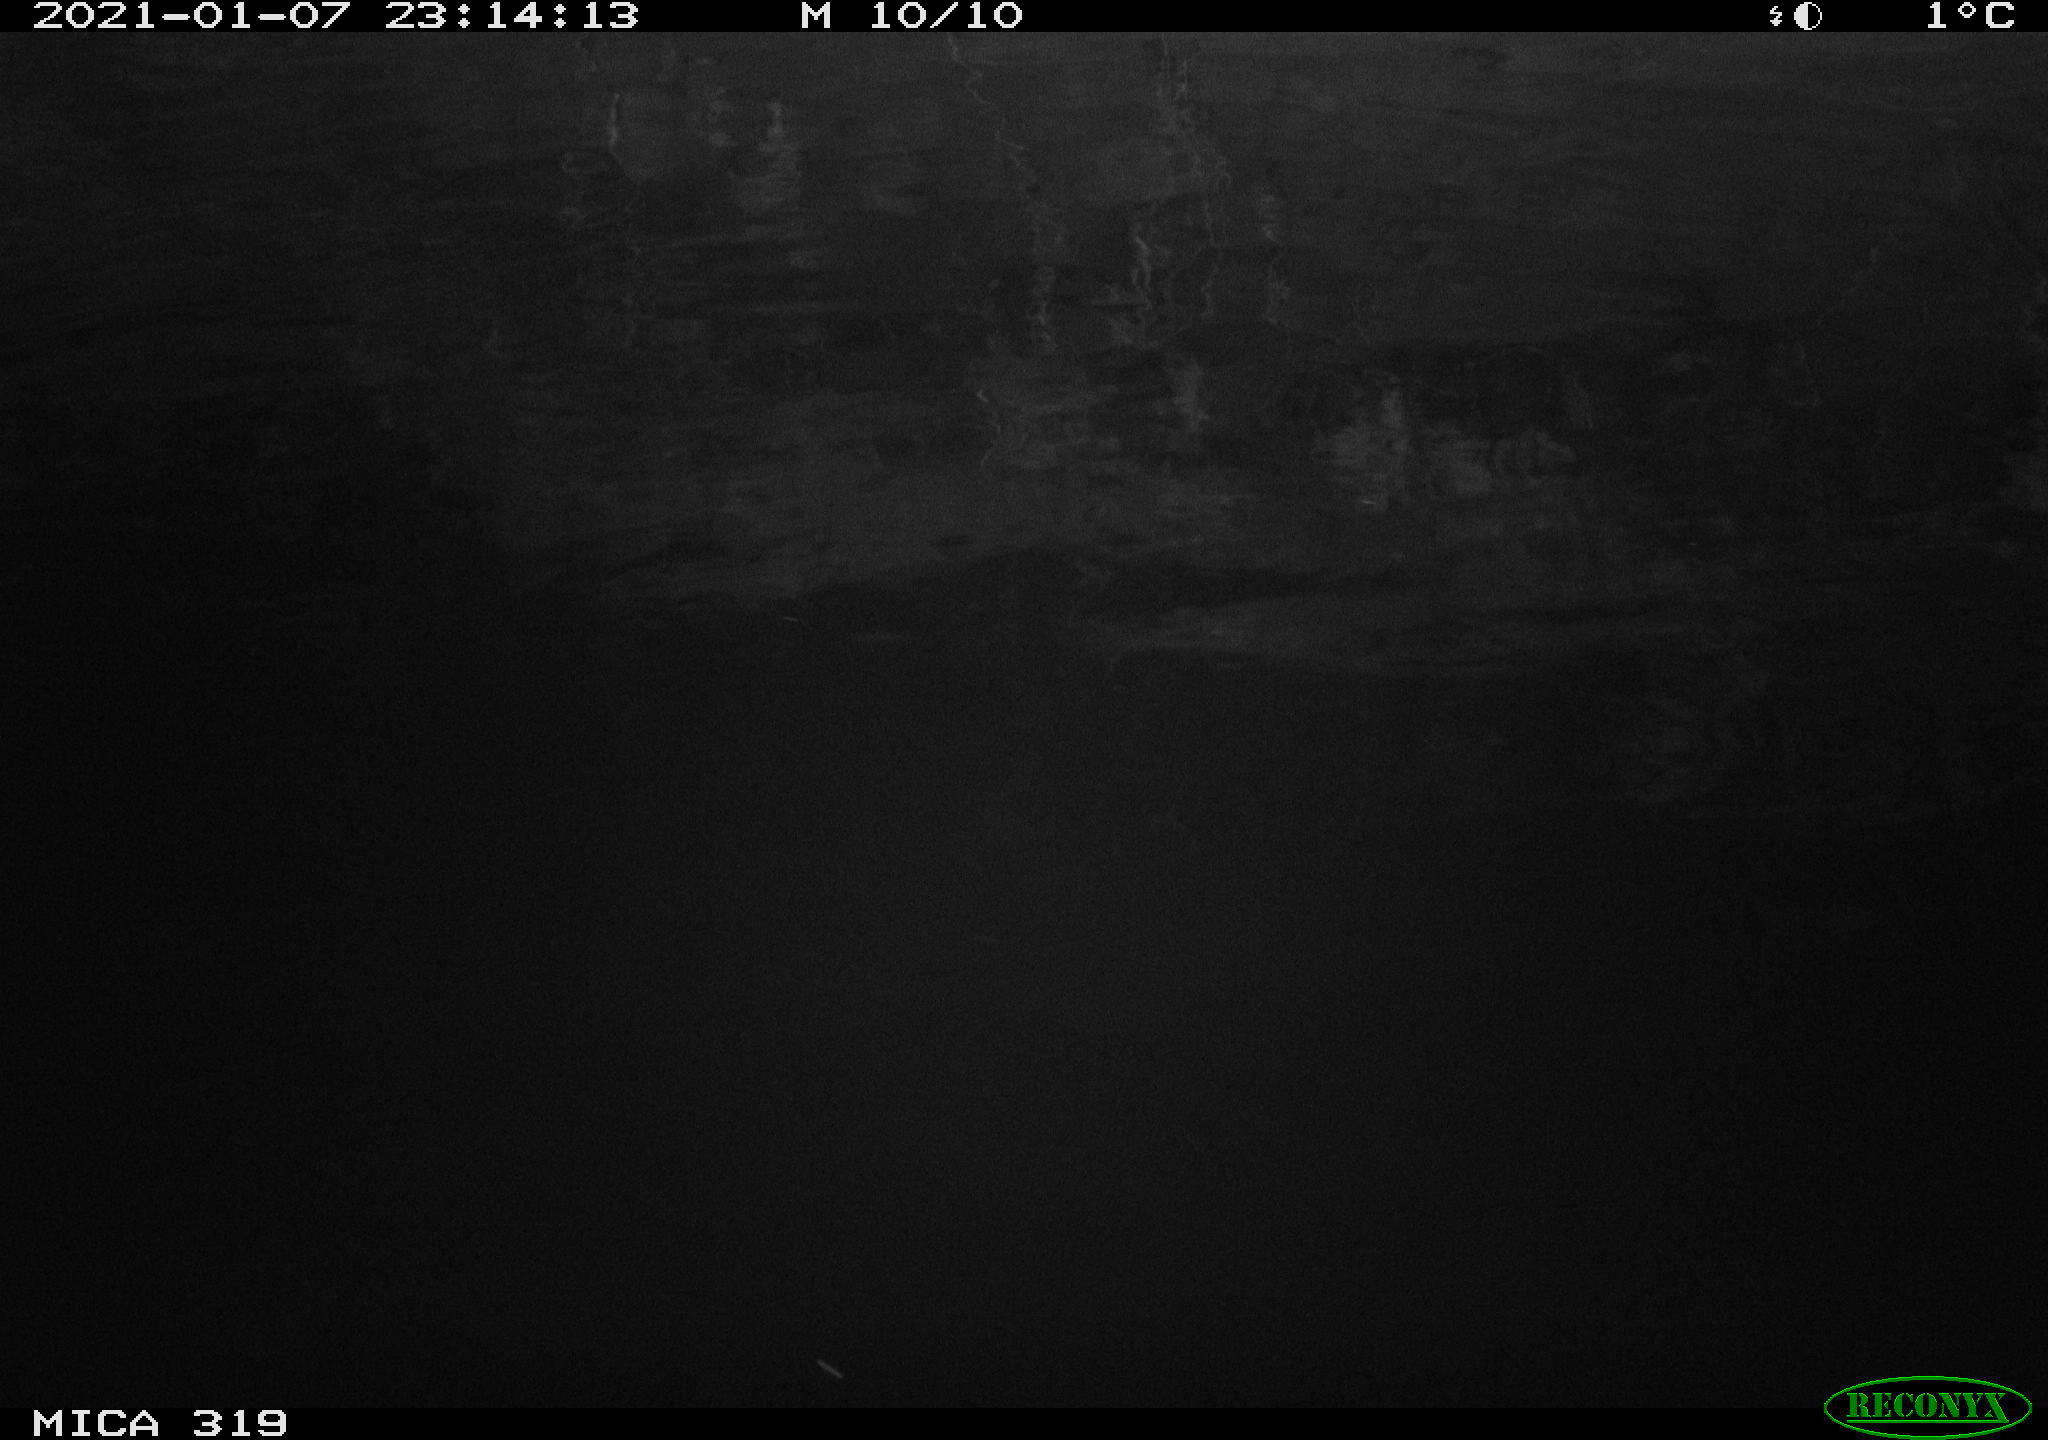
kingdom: Animalia
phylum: Chordata
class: Aves
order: Anseriformes
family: Anatidae
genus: Anas
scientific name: Anas platyrhynchos
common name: Mallard
